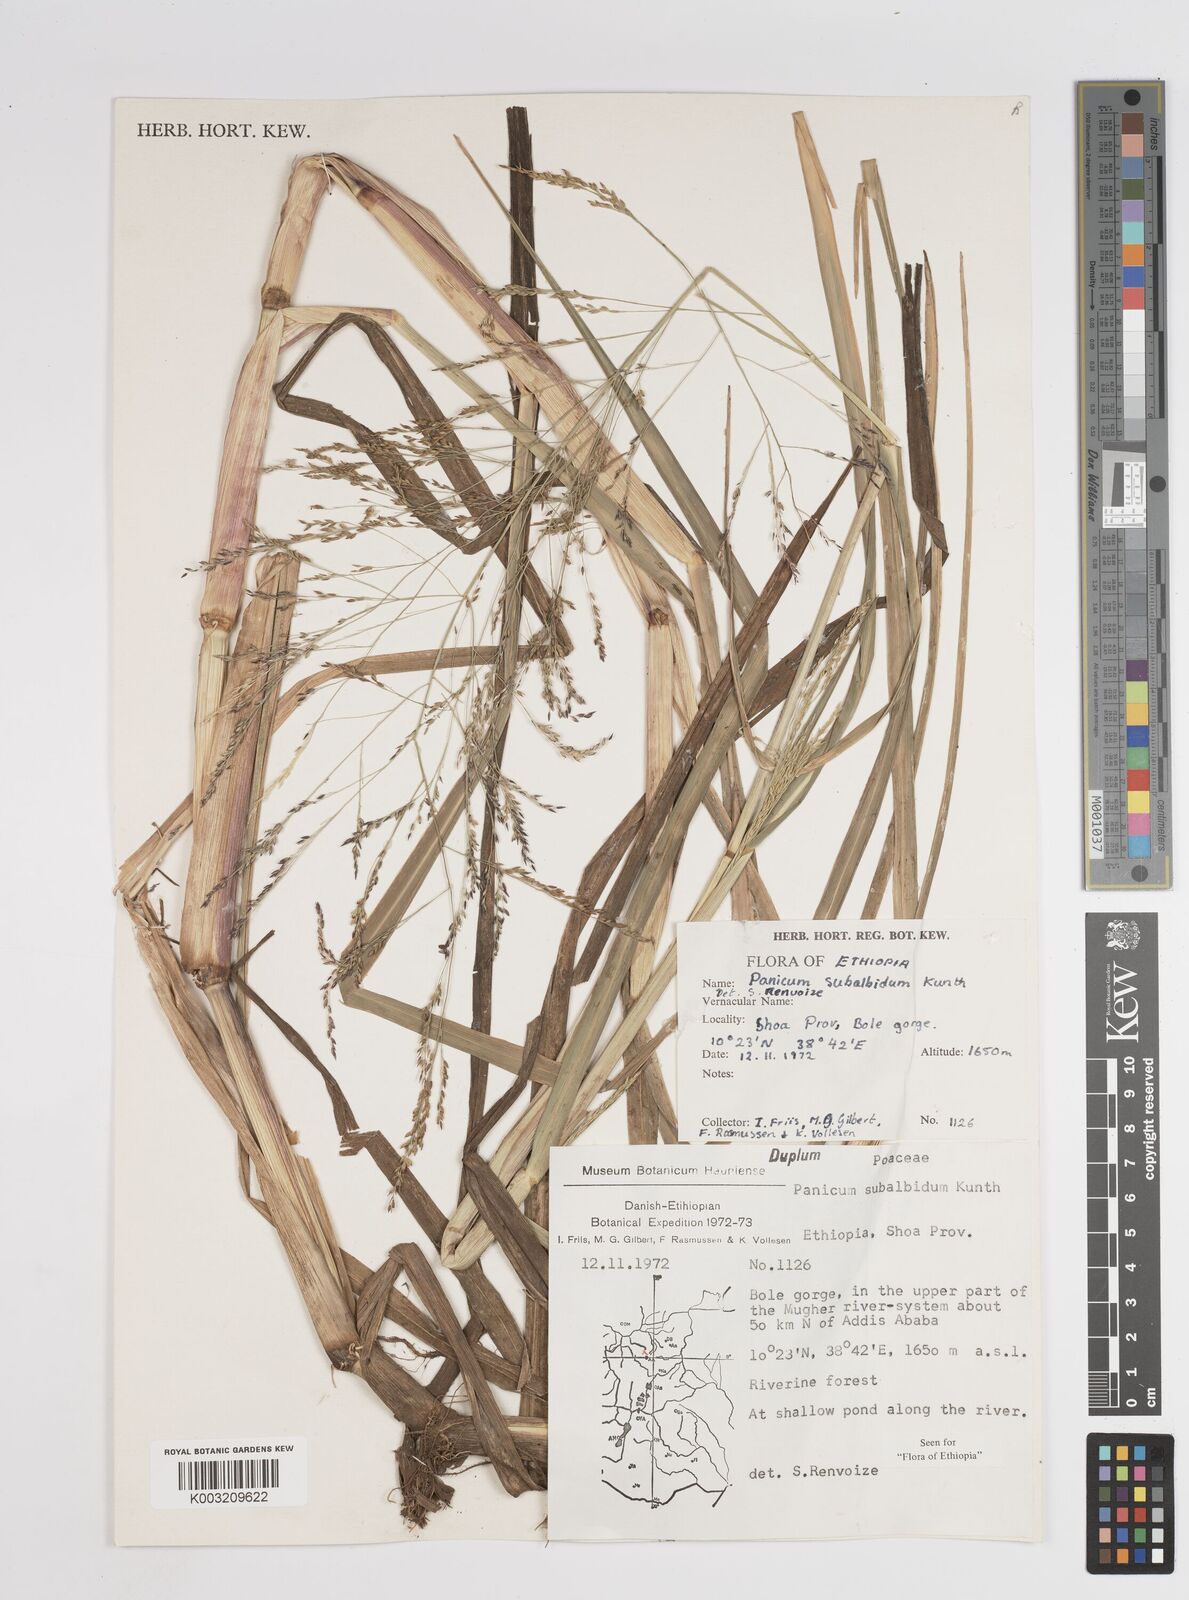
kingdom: Plantae
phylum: Tracheophyta
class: Liliopsida
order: Poales
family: Poaceae
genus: Panicum
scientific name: Panicum subalbidum
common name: Elbow buffalo grass
